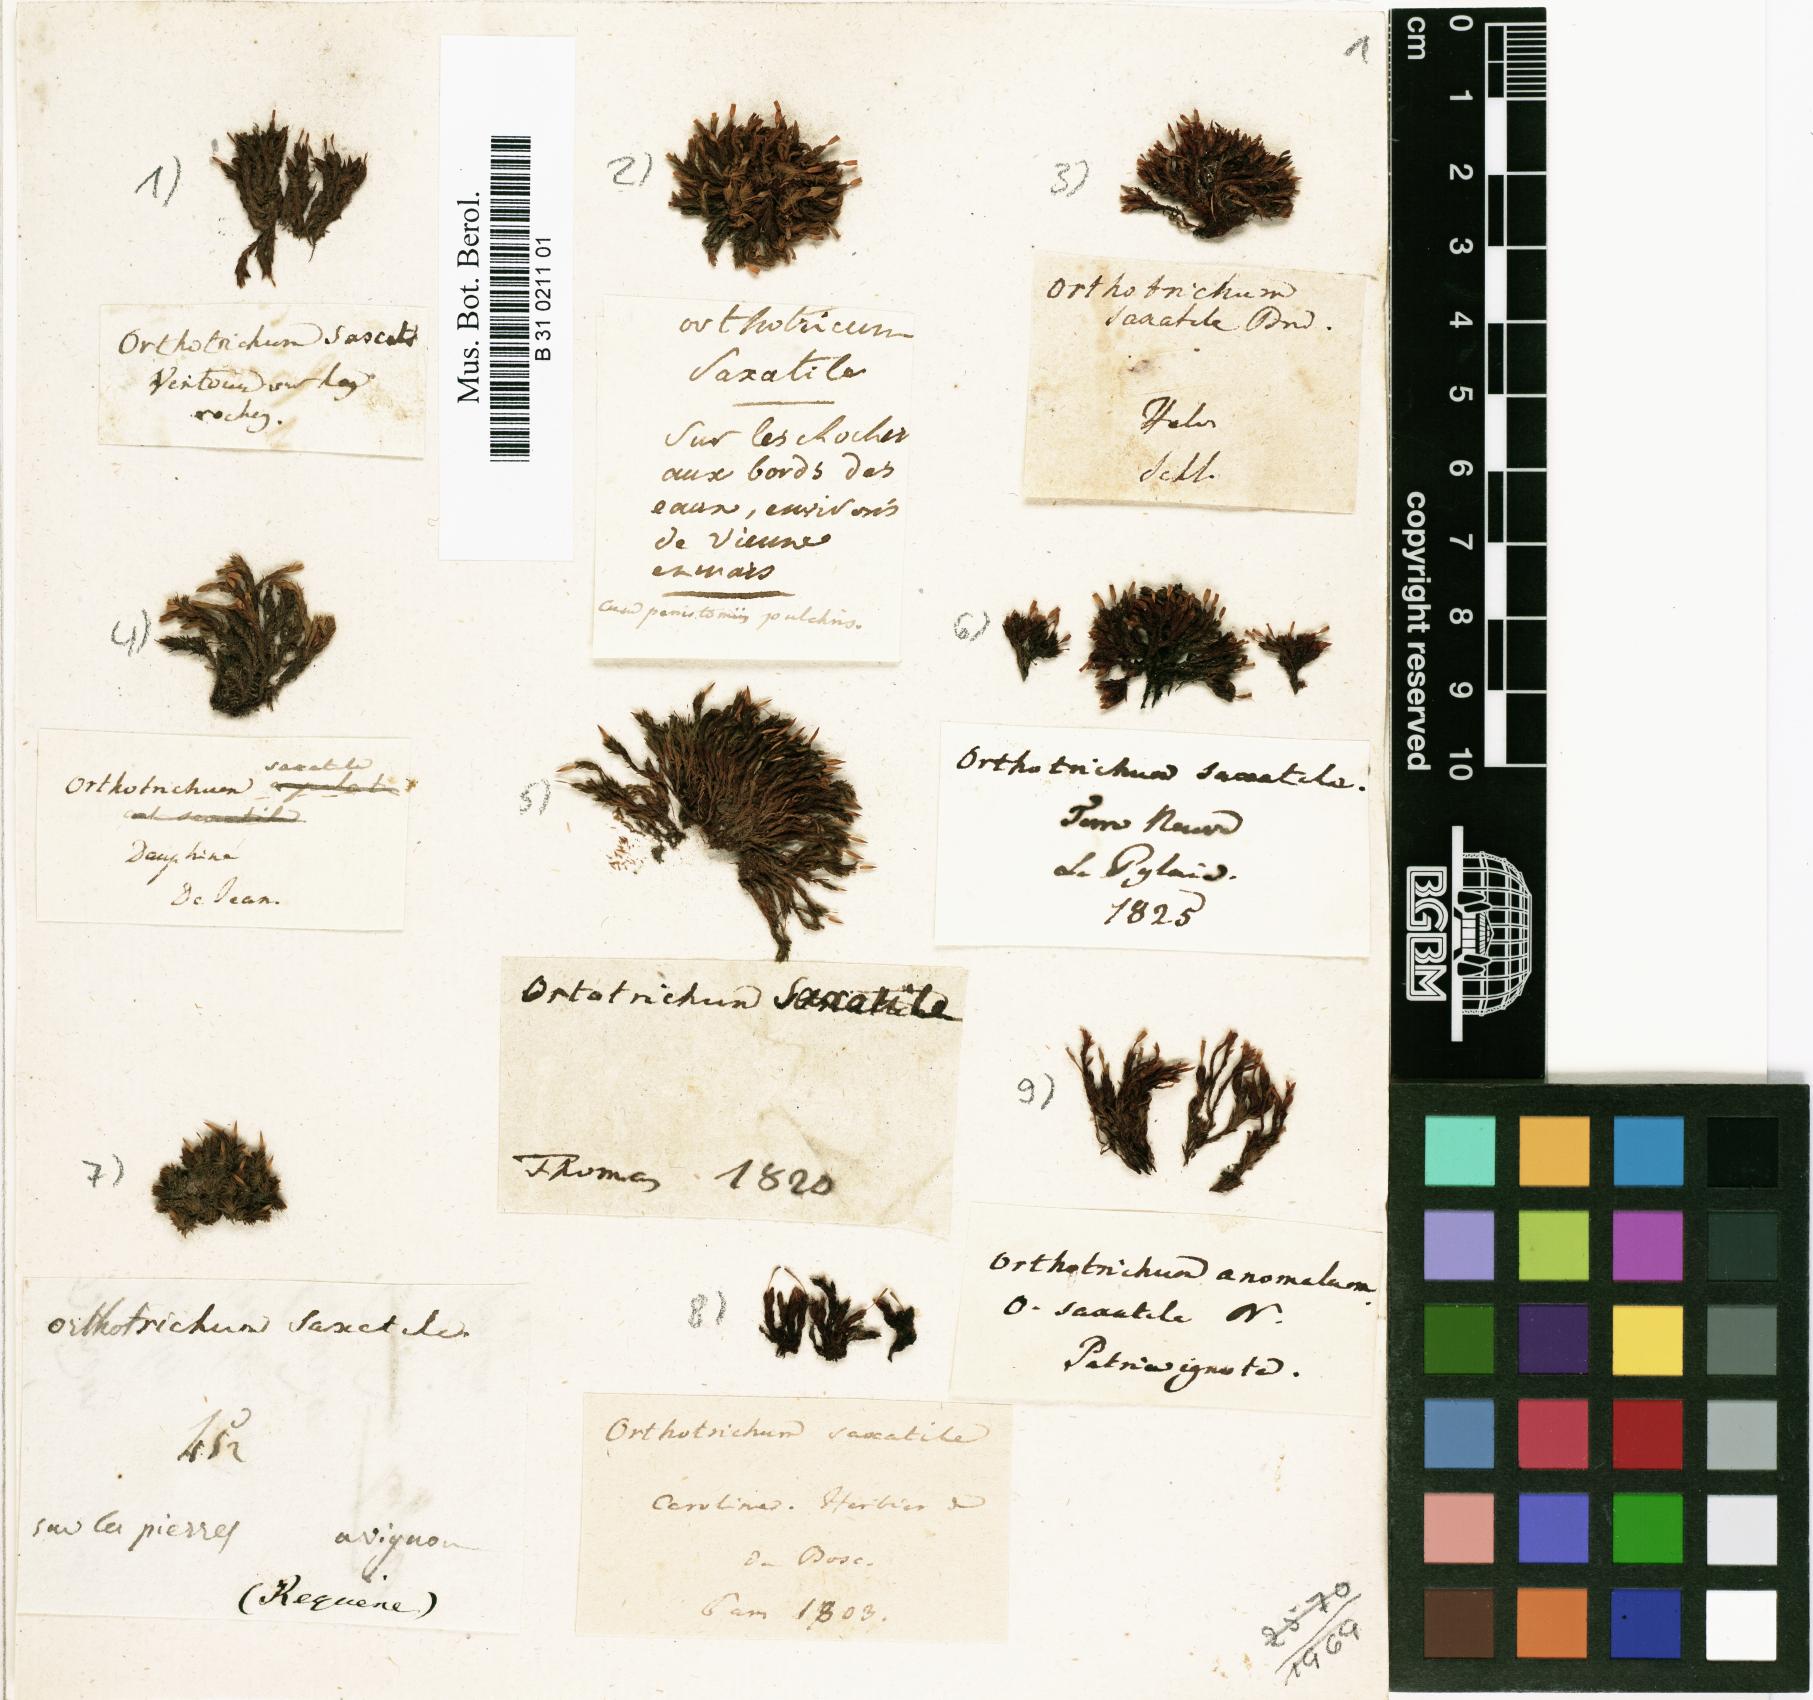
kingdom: Plantae
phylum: Bryophyta
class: Bryopsida
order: Orthotrichales
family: Orthotrichaceae
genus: Orthotrichum
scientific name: Orthotrichum anomalum
